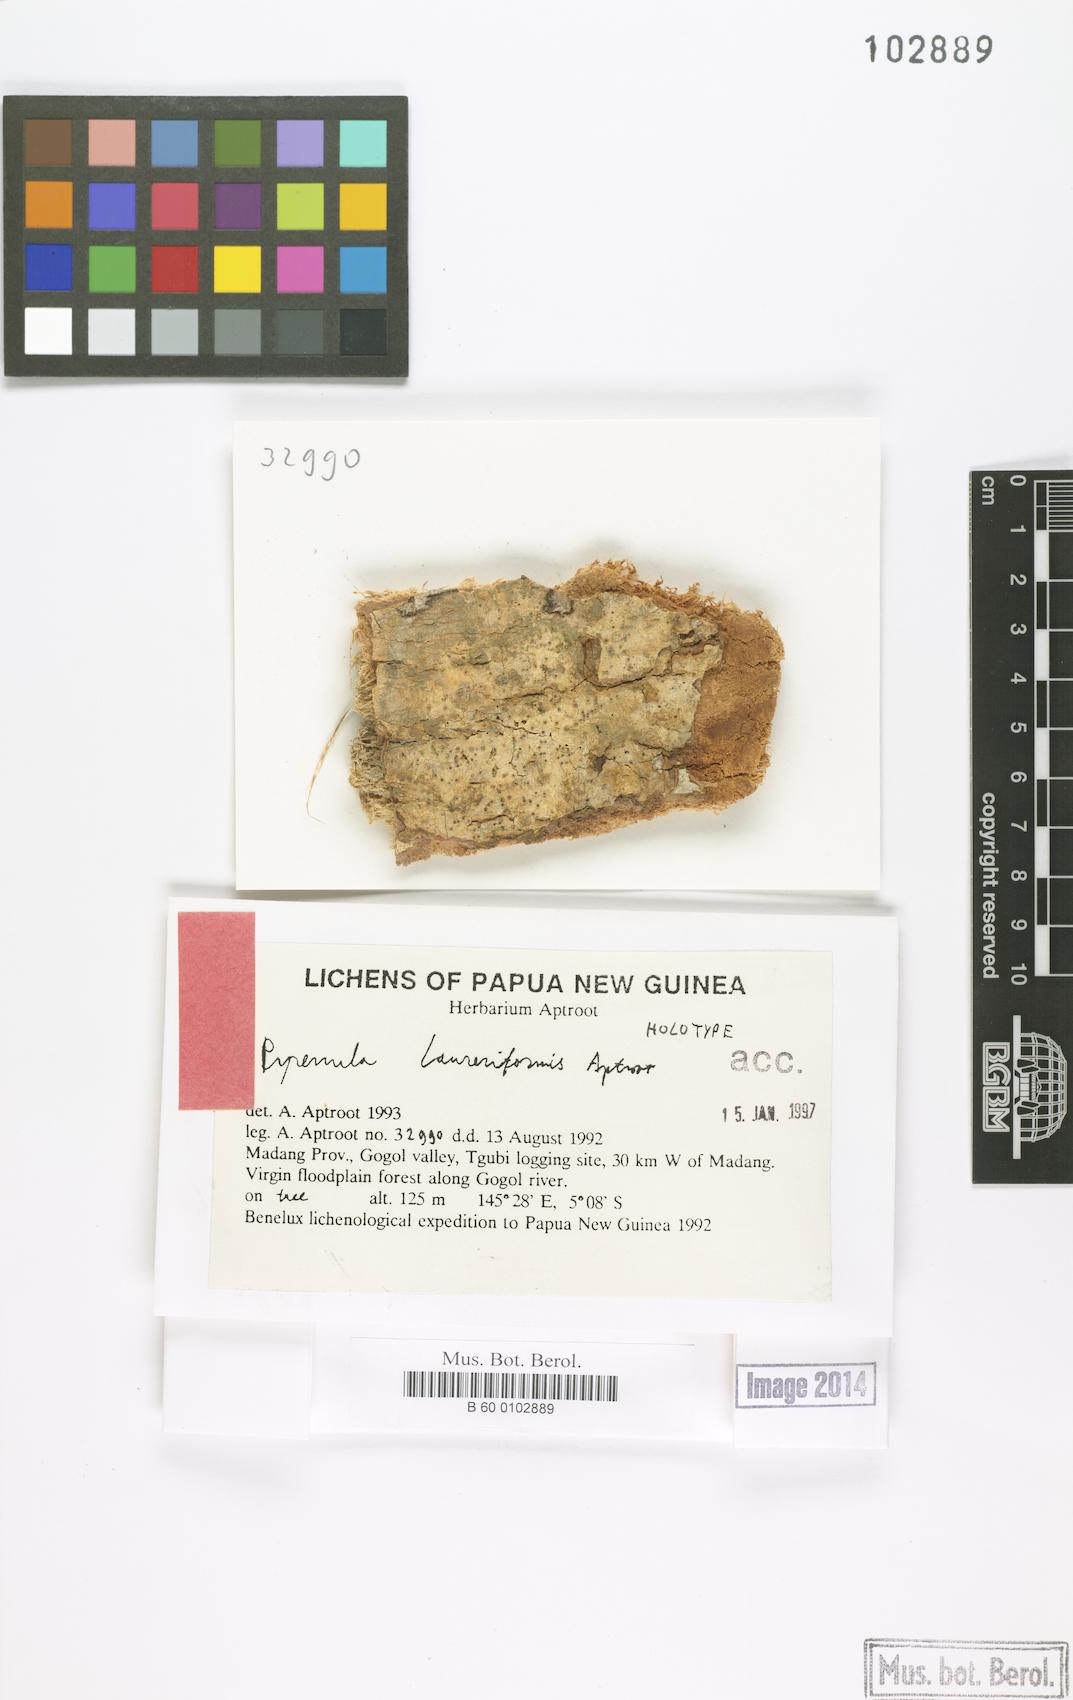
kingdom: Fungi
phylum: Ascomycota
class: Eurotiomycetes
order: Pyrenulales
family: Pyrenulaceae
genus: Pyrenula
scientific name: Pyrenula
